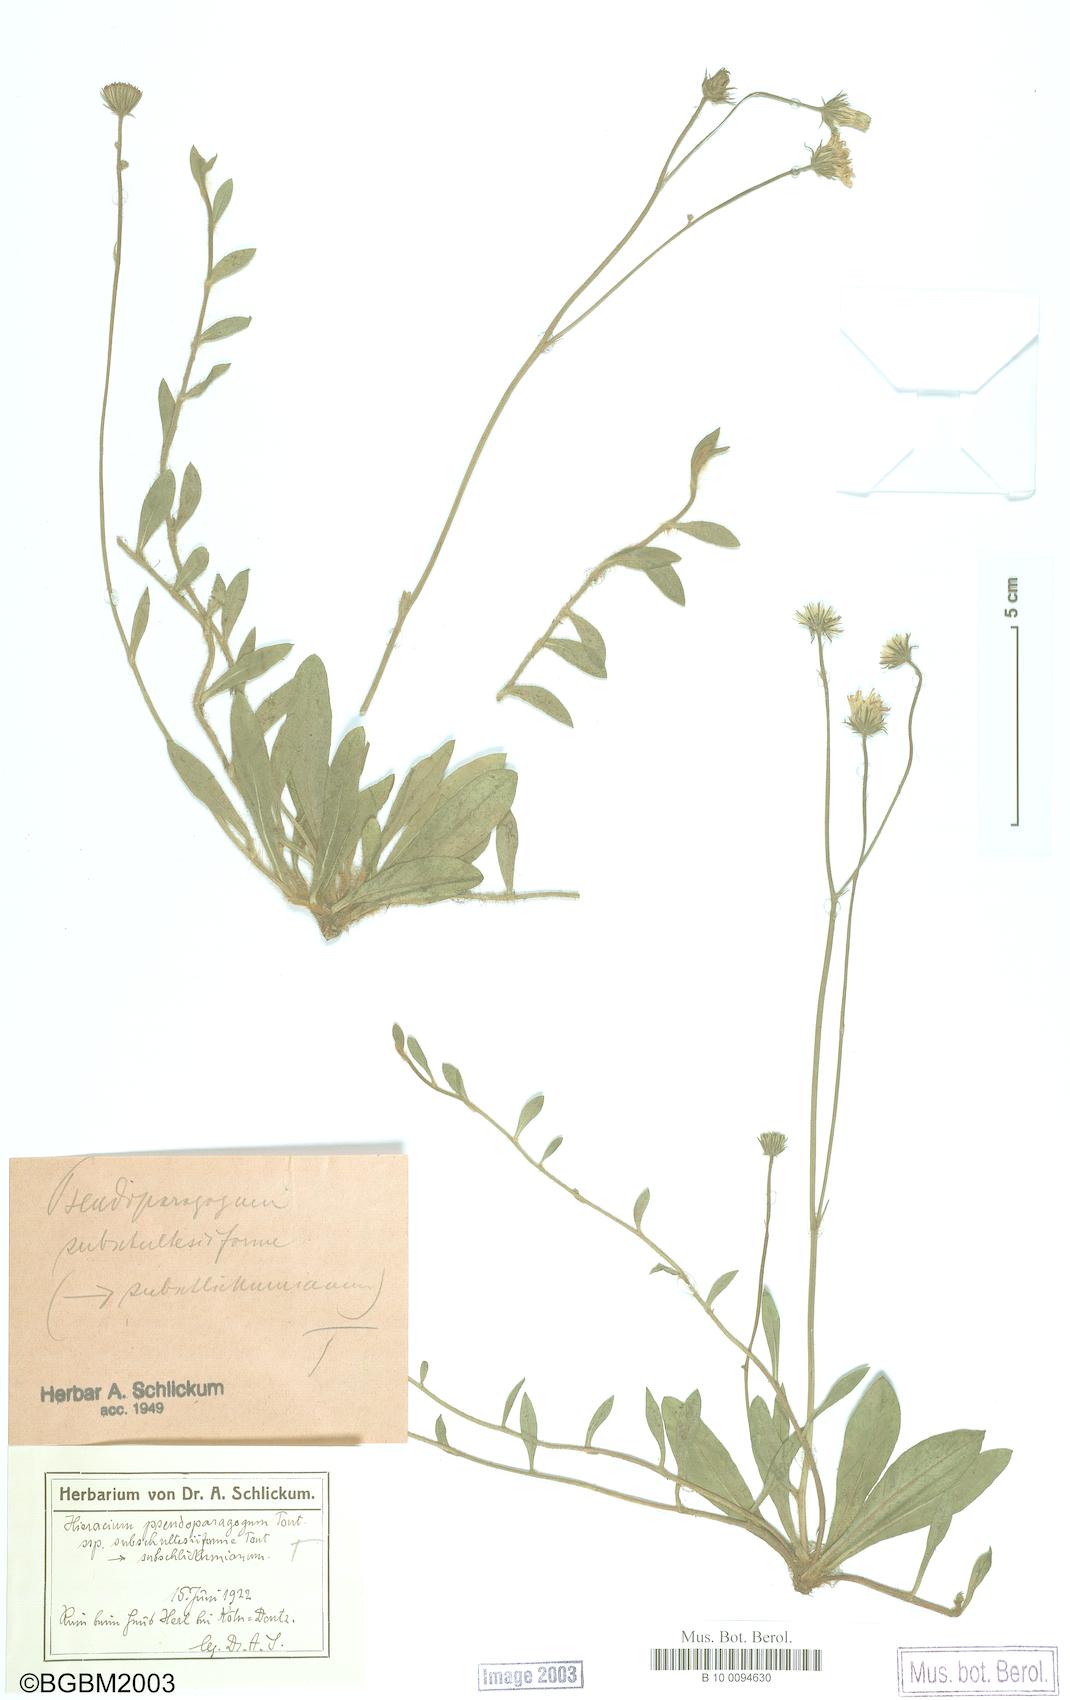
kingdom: Plantae
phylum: Tracheophyta
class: Magnoliopsida
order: Asterales
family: Asteraceae
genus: Pilosella
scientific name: Pilosella pseudoparagoga
